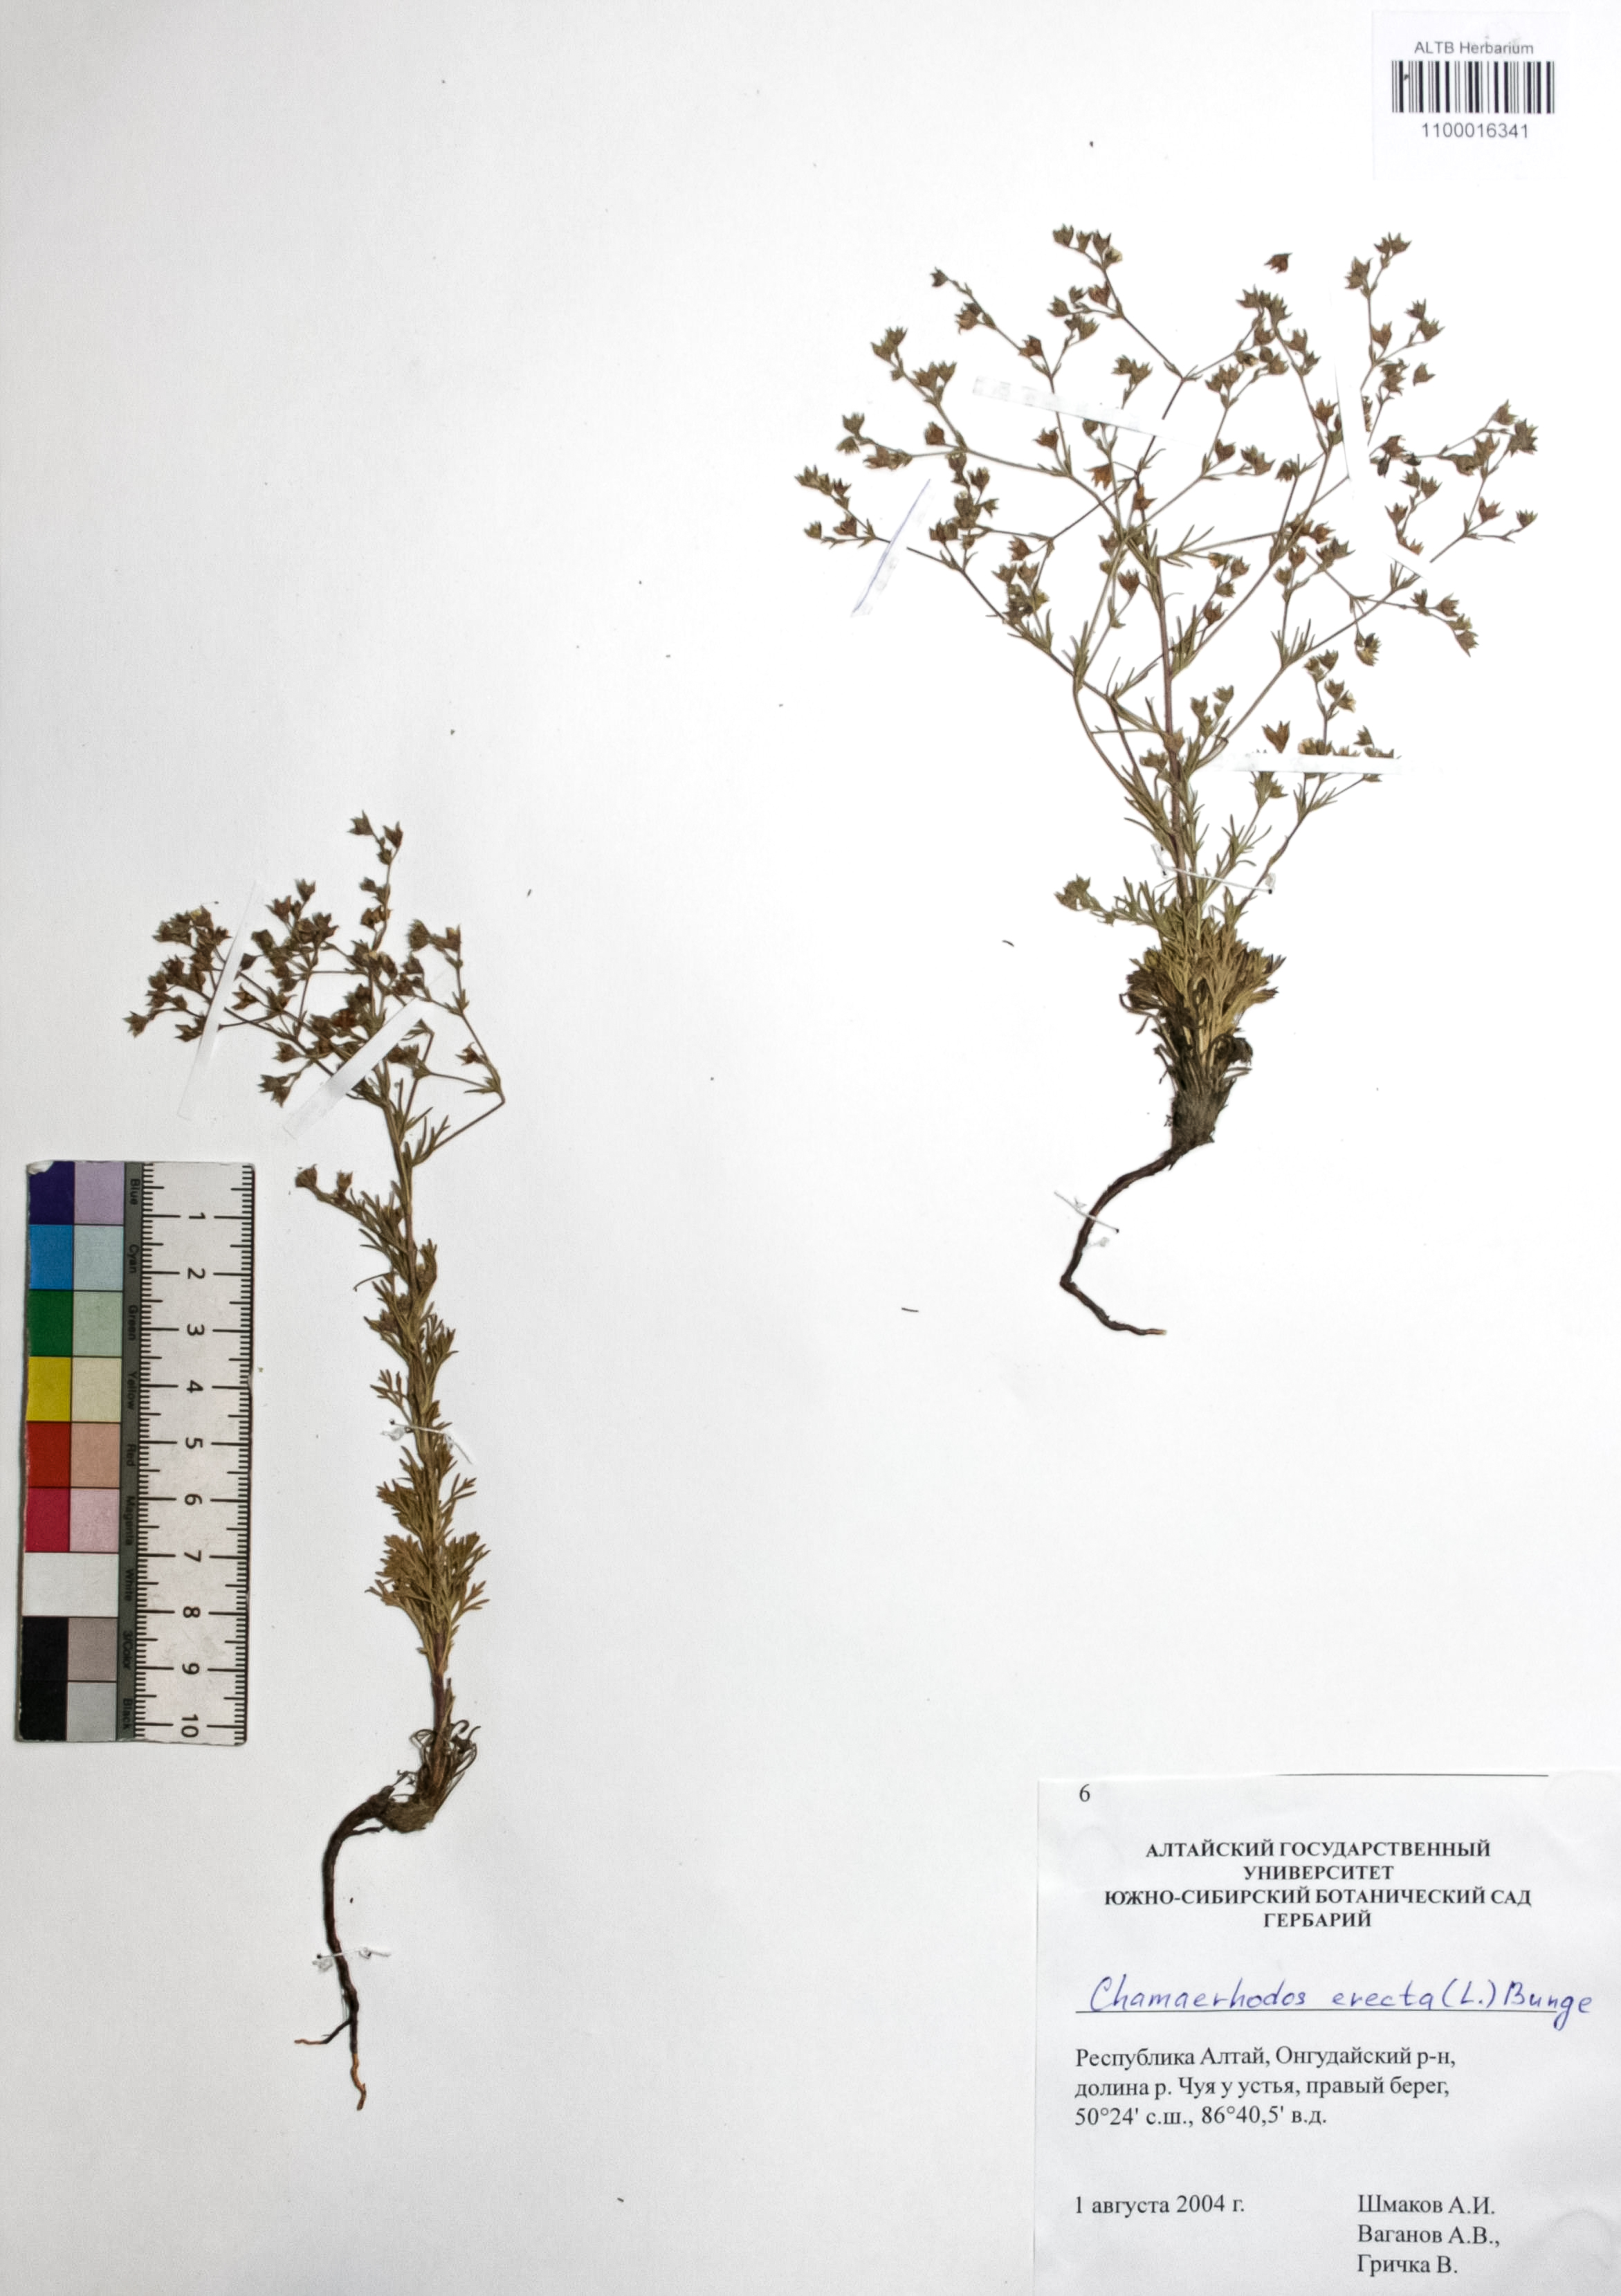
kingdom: Plantae
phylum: Tracheophyta
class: Magnoliopsida
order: Rosales
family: Rosaceae
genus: Chamaerhodos
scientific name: Chamaerhodos erecta
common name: American chamaerhodos
